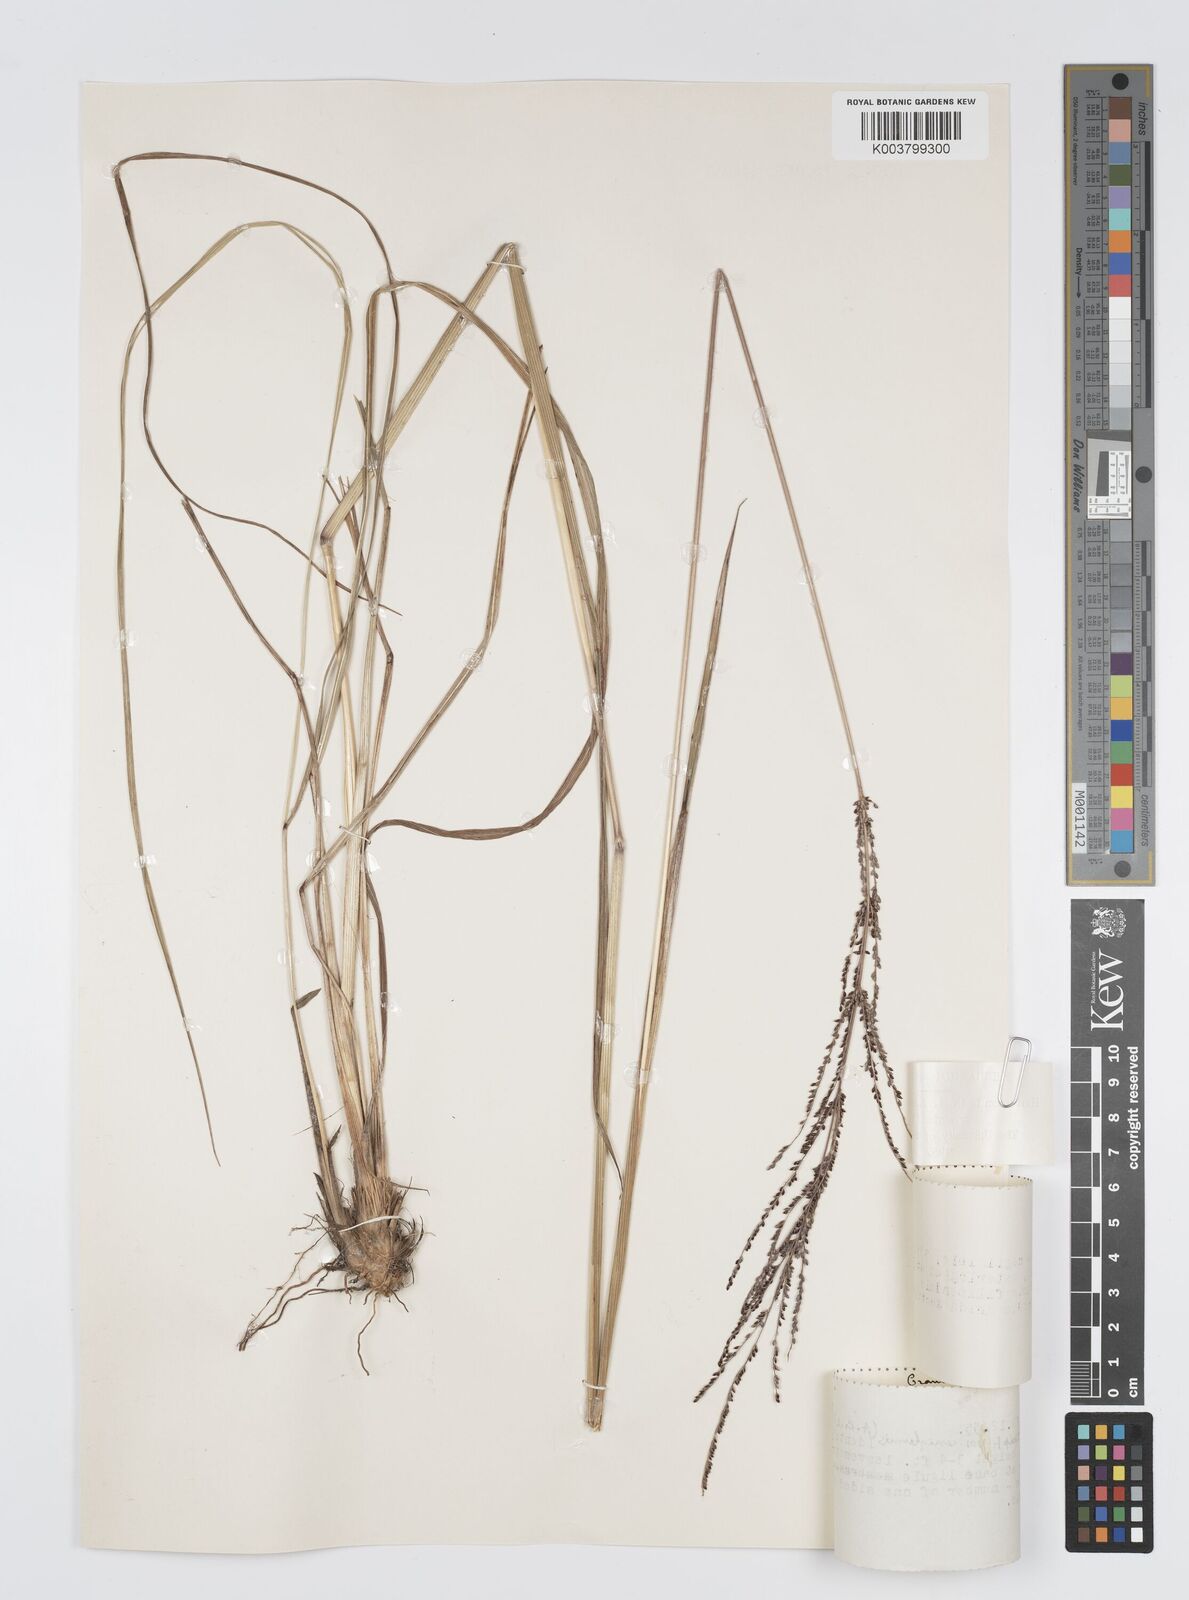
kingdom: Plantae
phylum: Tracheophyta
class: Liliopsida
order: Poales
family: Poaceae
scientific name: Poaceae
